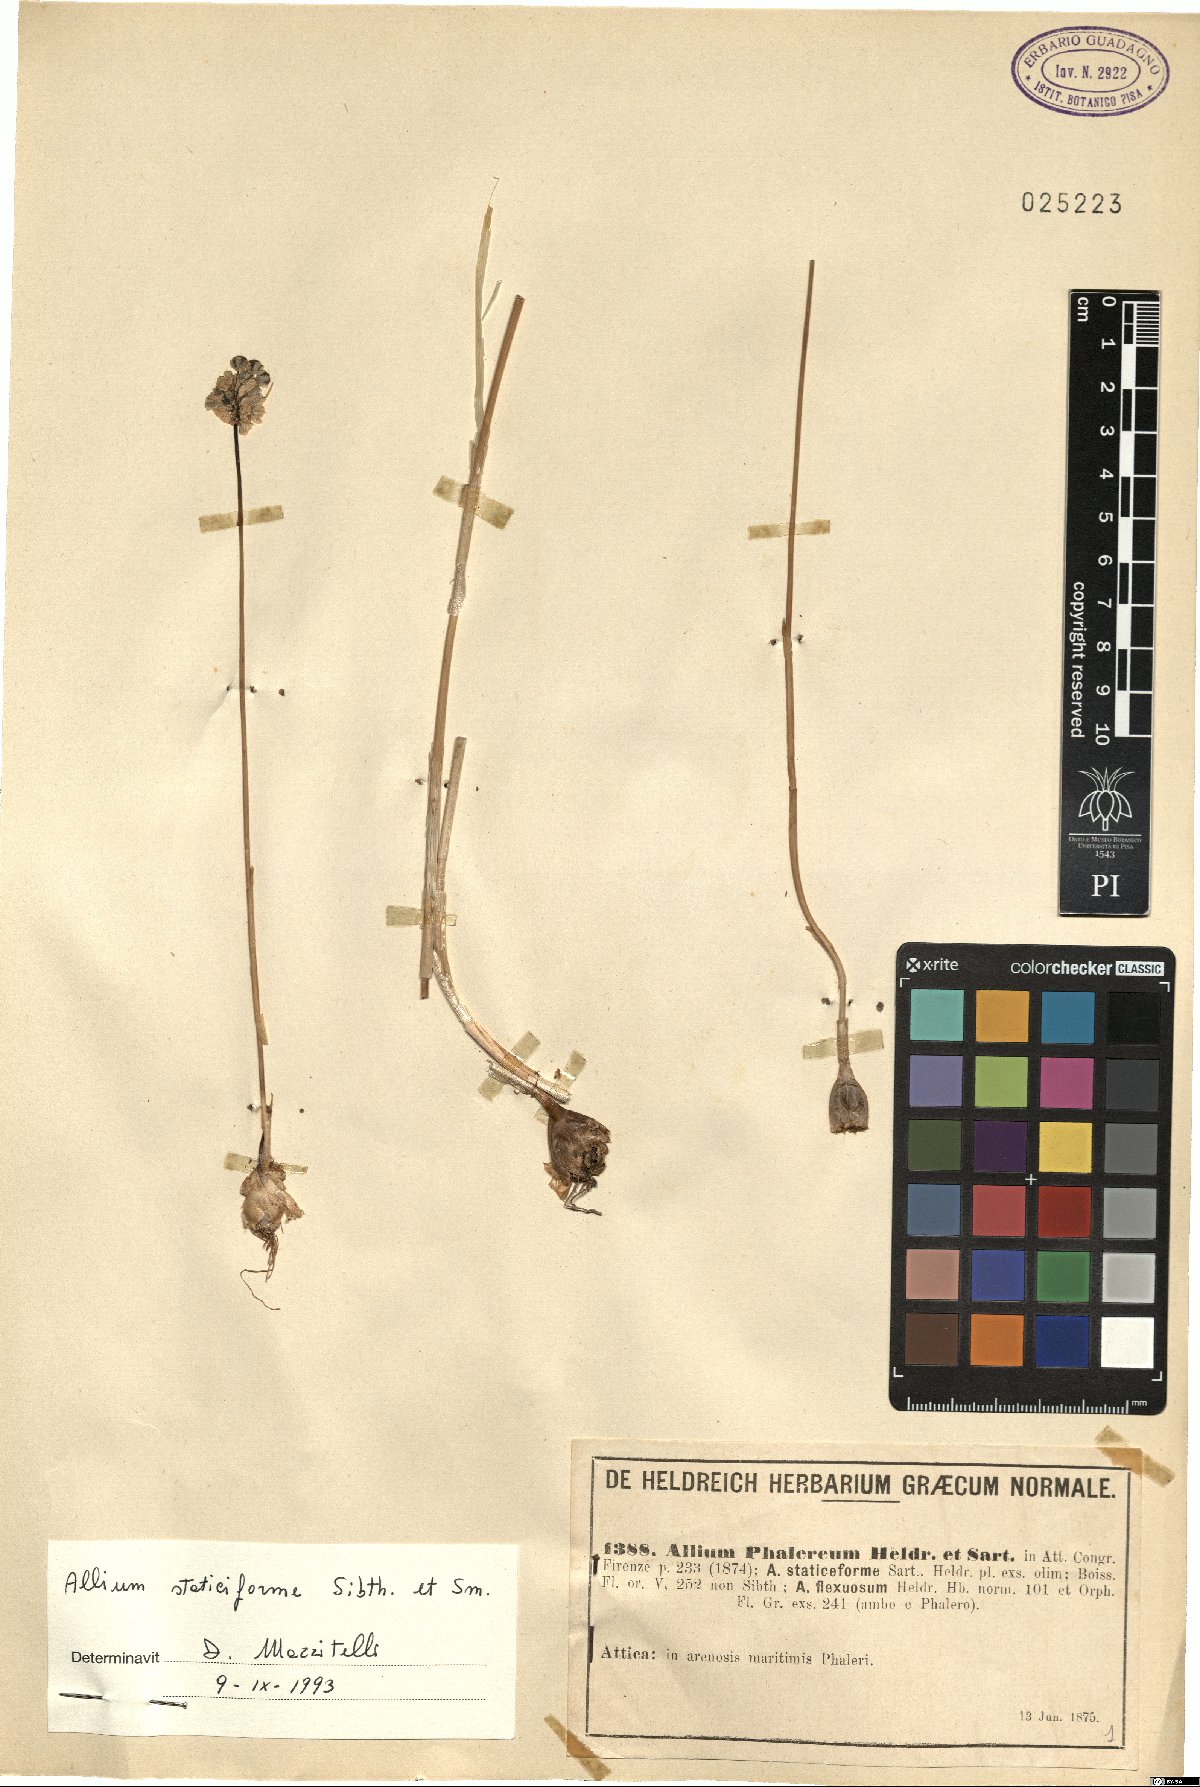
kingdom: Plantae
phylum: Tracheophyta
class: Liliopsida
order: Asparagales
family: Amaryllidaceae
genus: Allium
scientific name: Allium staticiforme
